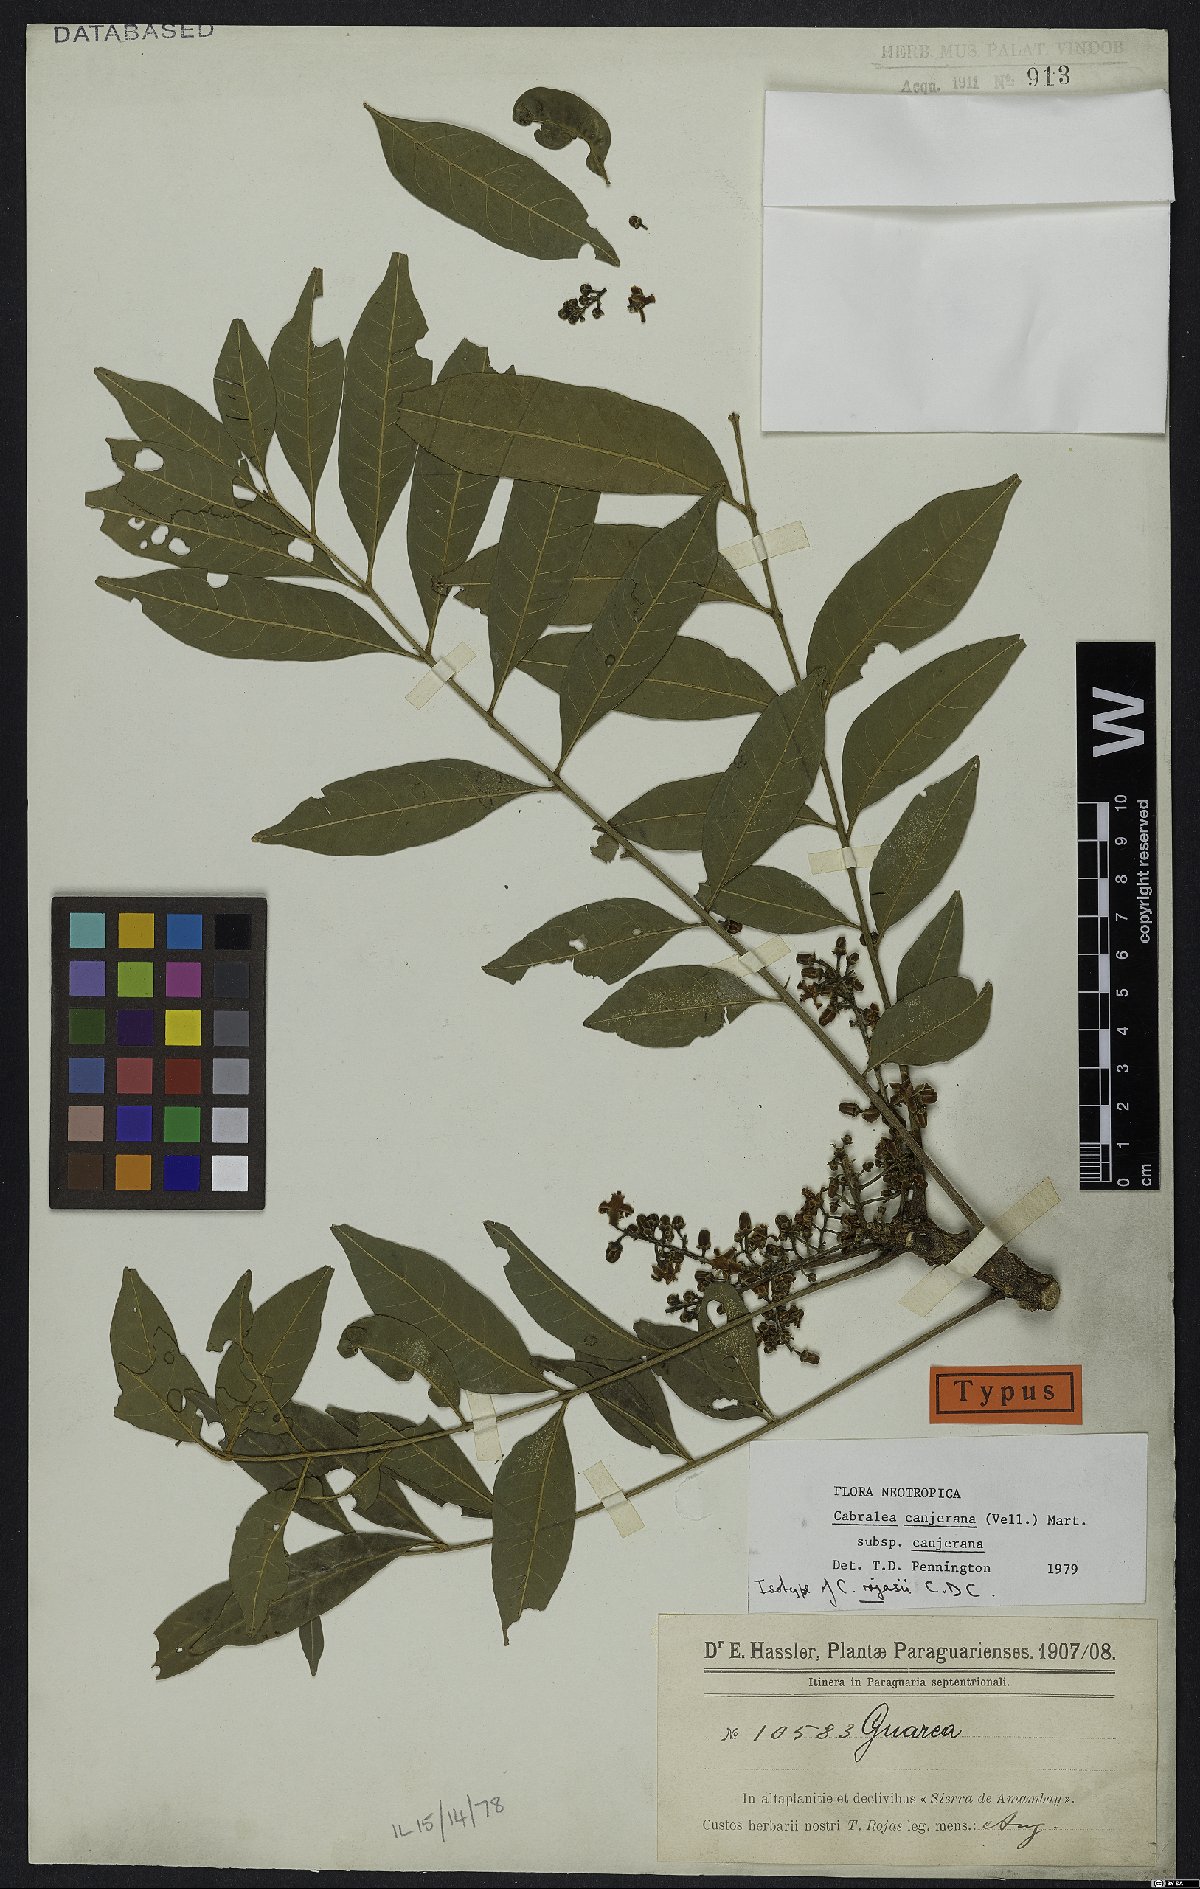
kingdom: Plantae
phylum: Tracheophyta
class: Magnoliopsida
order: Sapindales
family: Meliaceae
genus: Cabralea
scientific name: Cabralea canjerana
